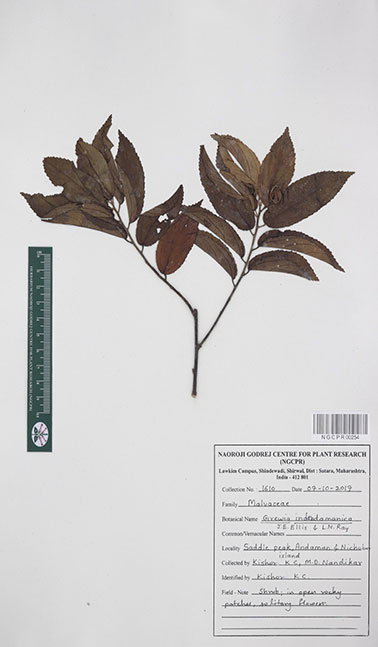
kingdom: Plantae
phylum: Tracheophyta
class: Magnoliopsida
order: Malvales
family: Malvaceae
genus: Grewia
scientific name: Grewia indandamanica
